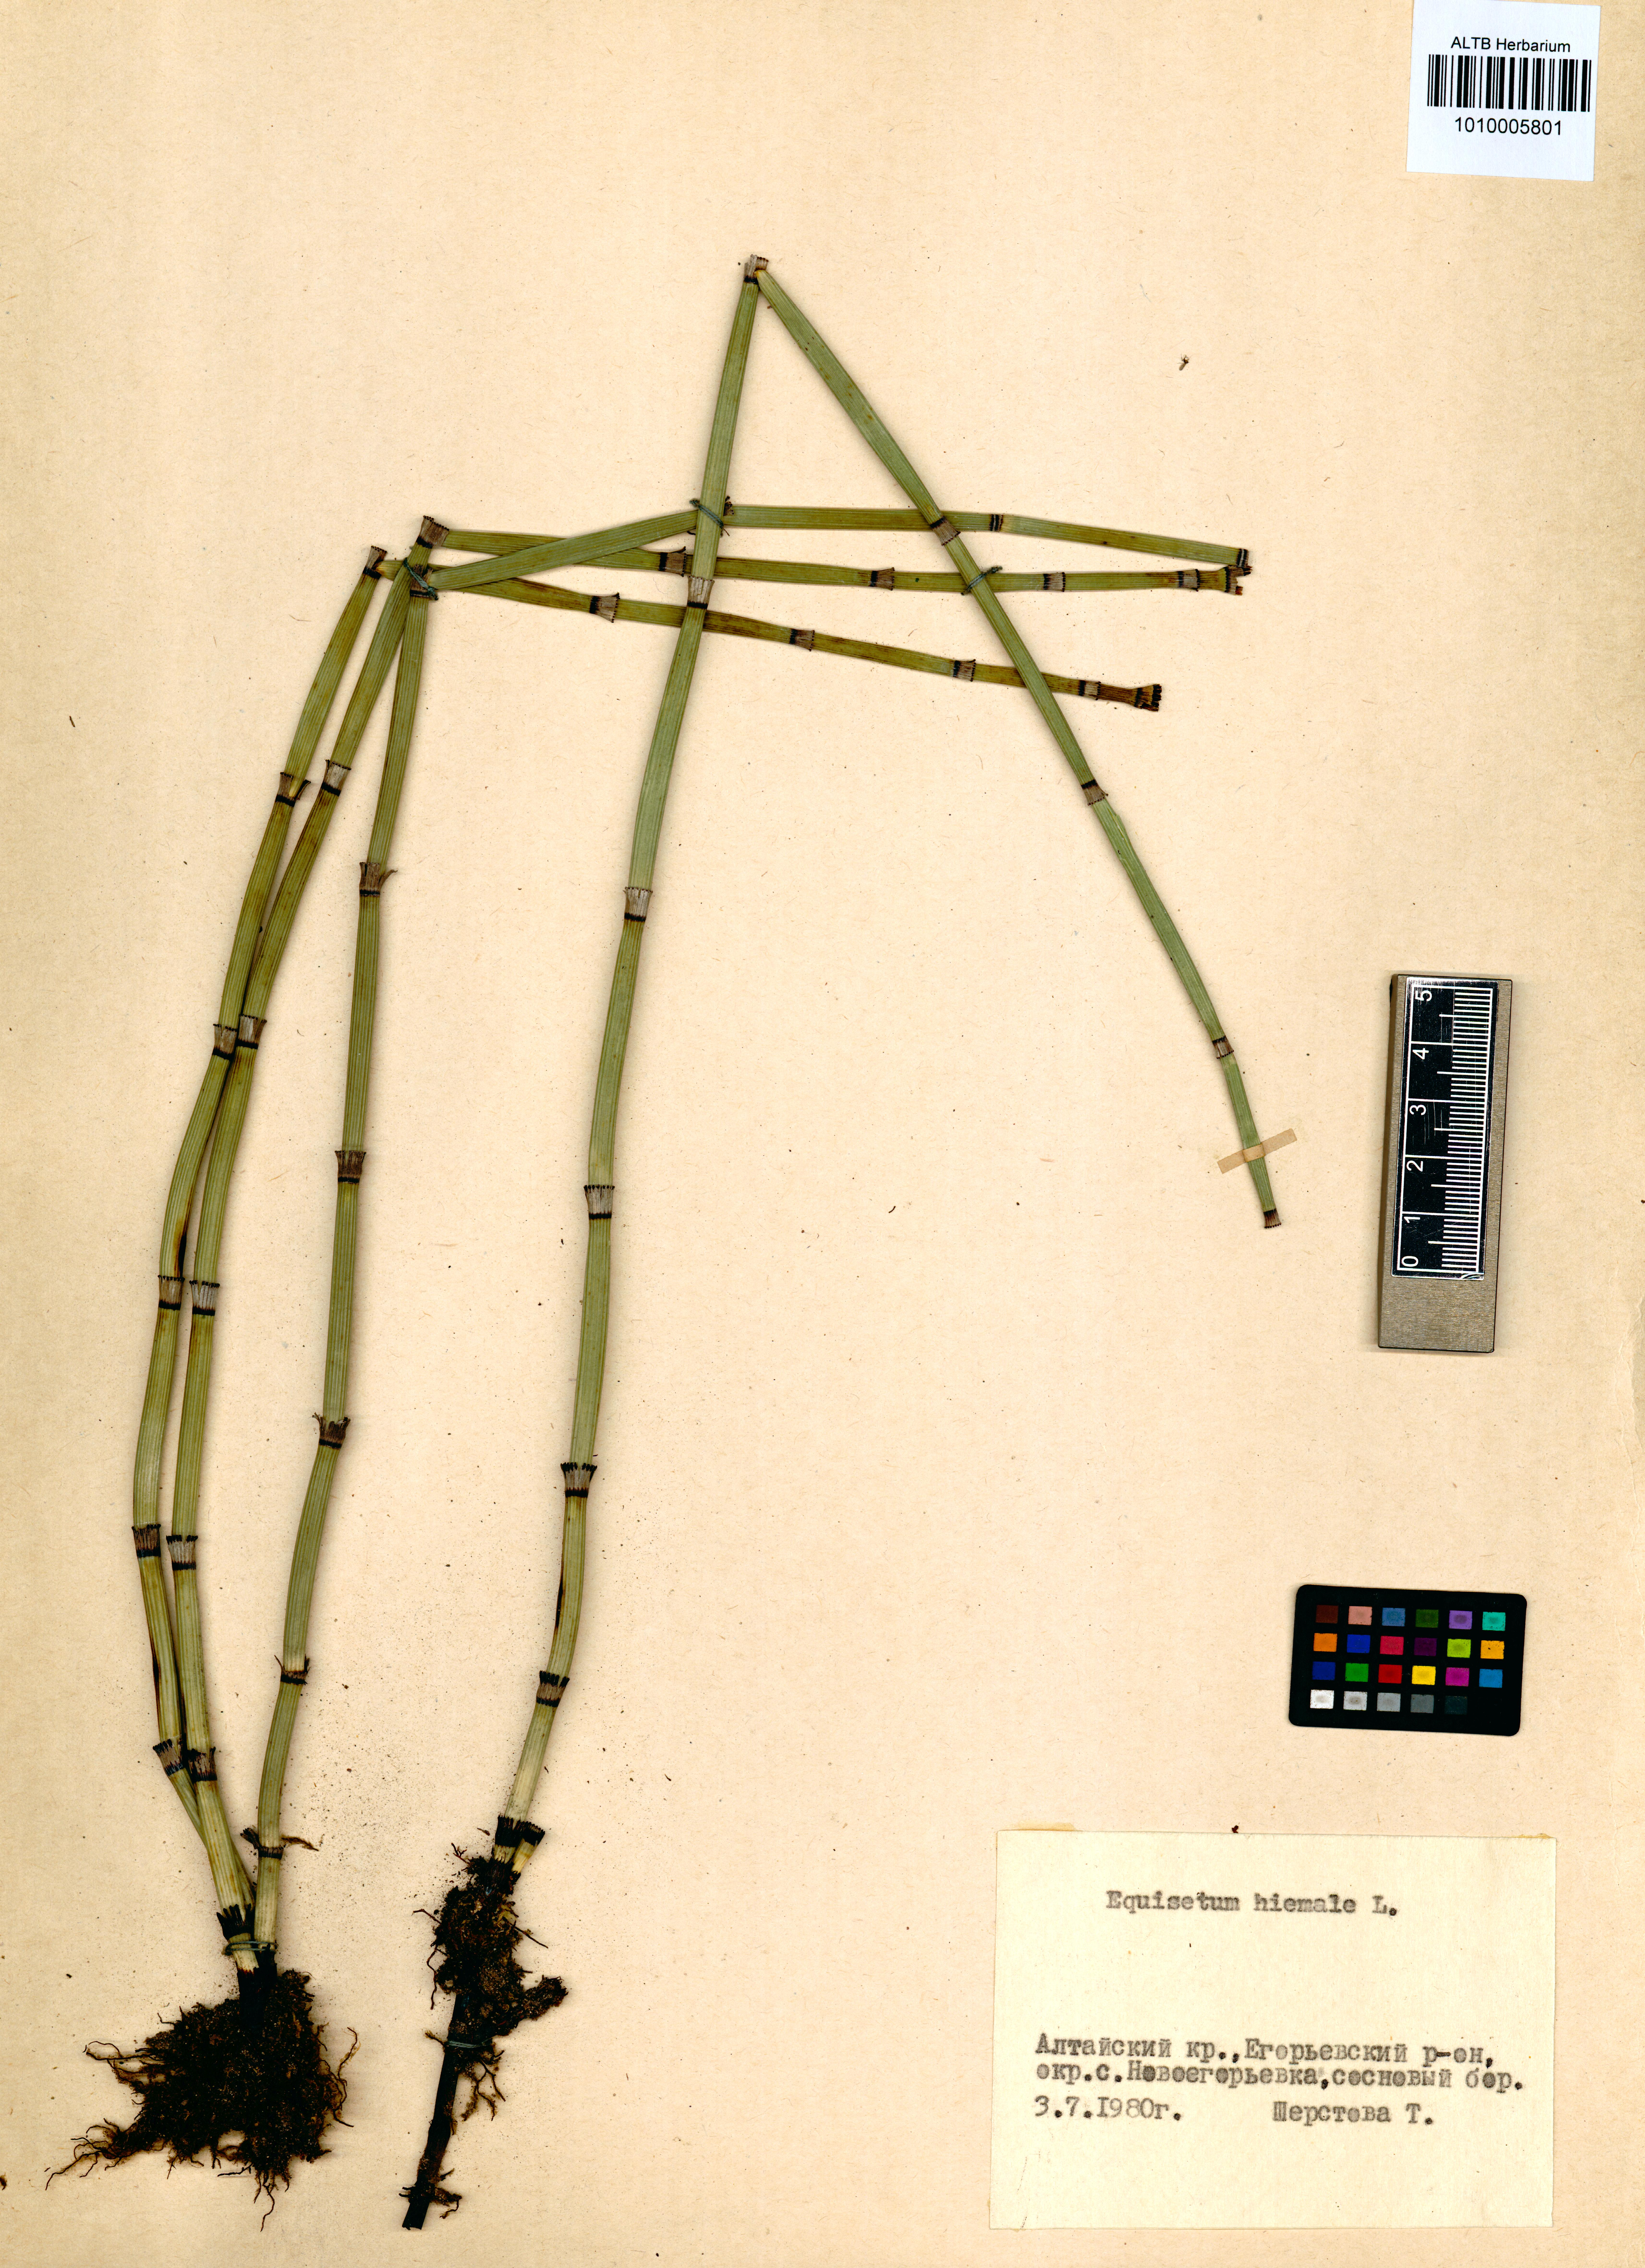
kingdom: Plantae
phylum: Tracheophyta
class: Polypodiopsida
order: Equisetales
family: Equisetaceae
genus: Equisetum
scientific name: Equisetum hyemale
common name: Rough horsetail
